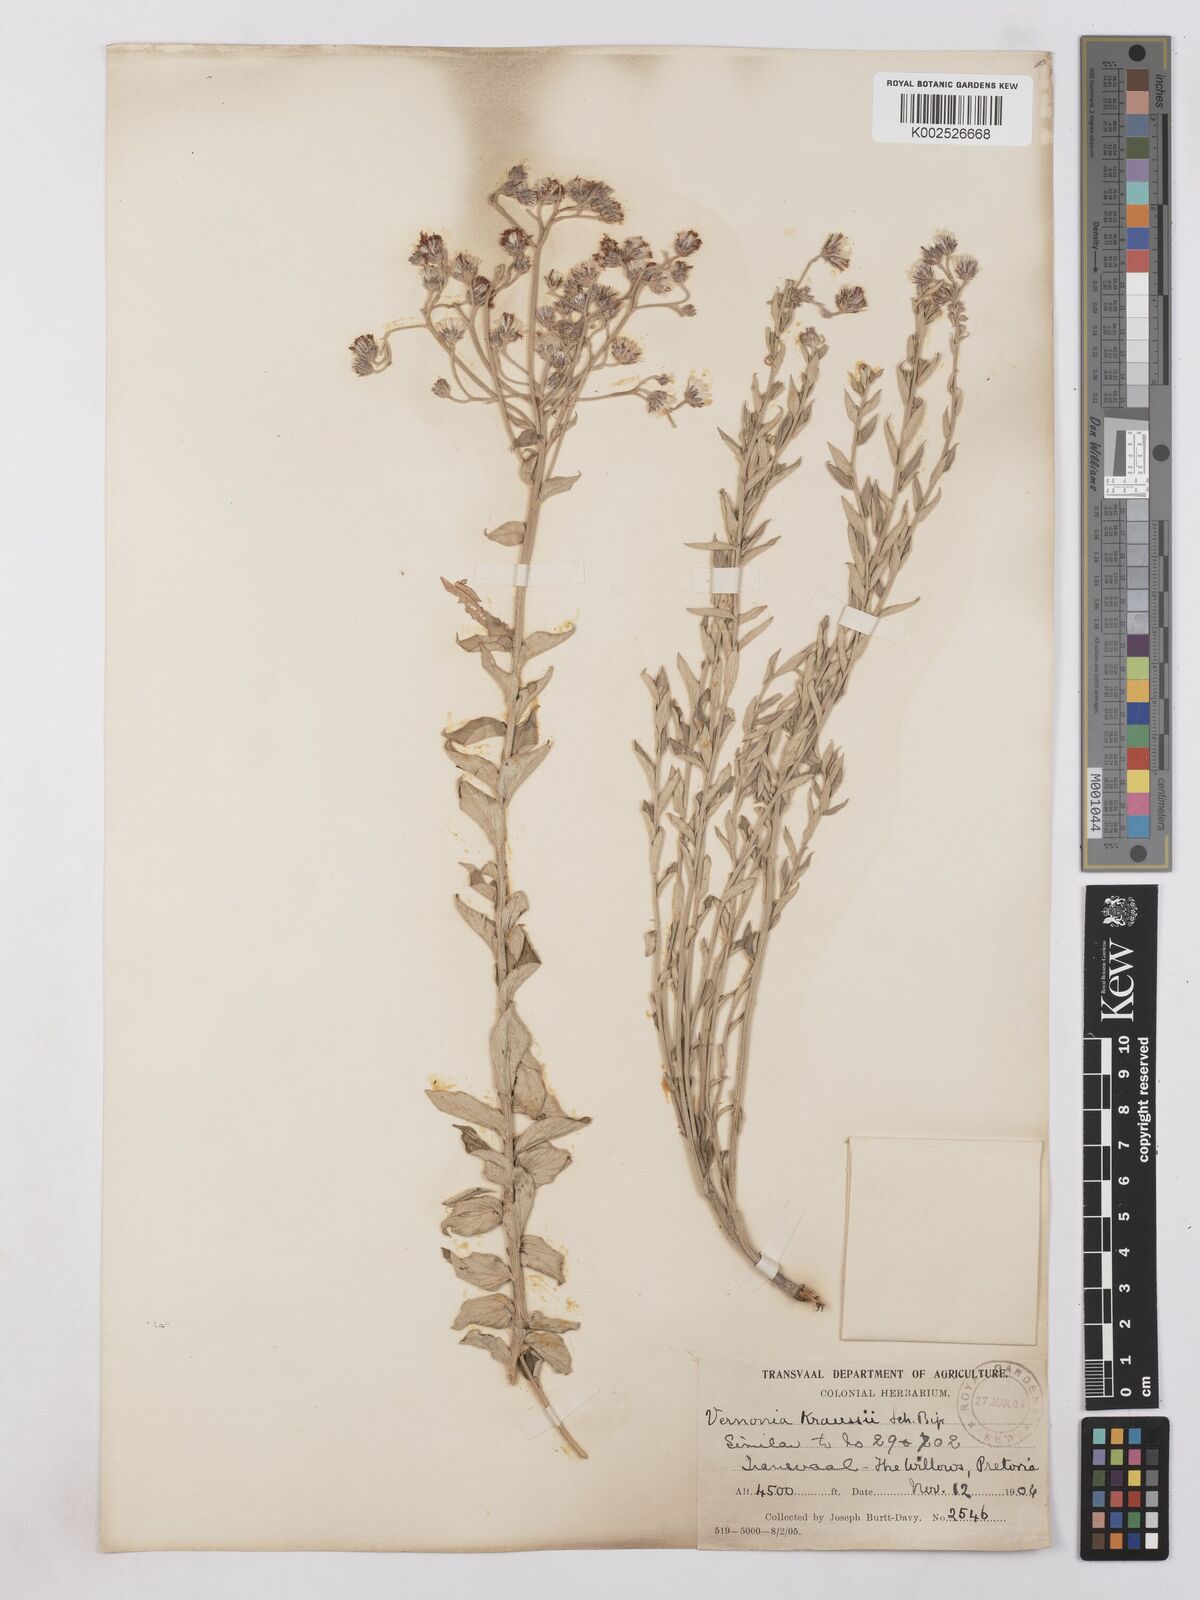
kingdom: Plantae
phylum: Tracheophyta
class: Magnoliopsida
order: Asterales
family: Asteraceae
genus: Hilliardiella
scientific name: Hilliardiella oligocephala
